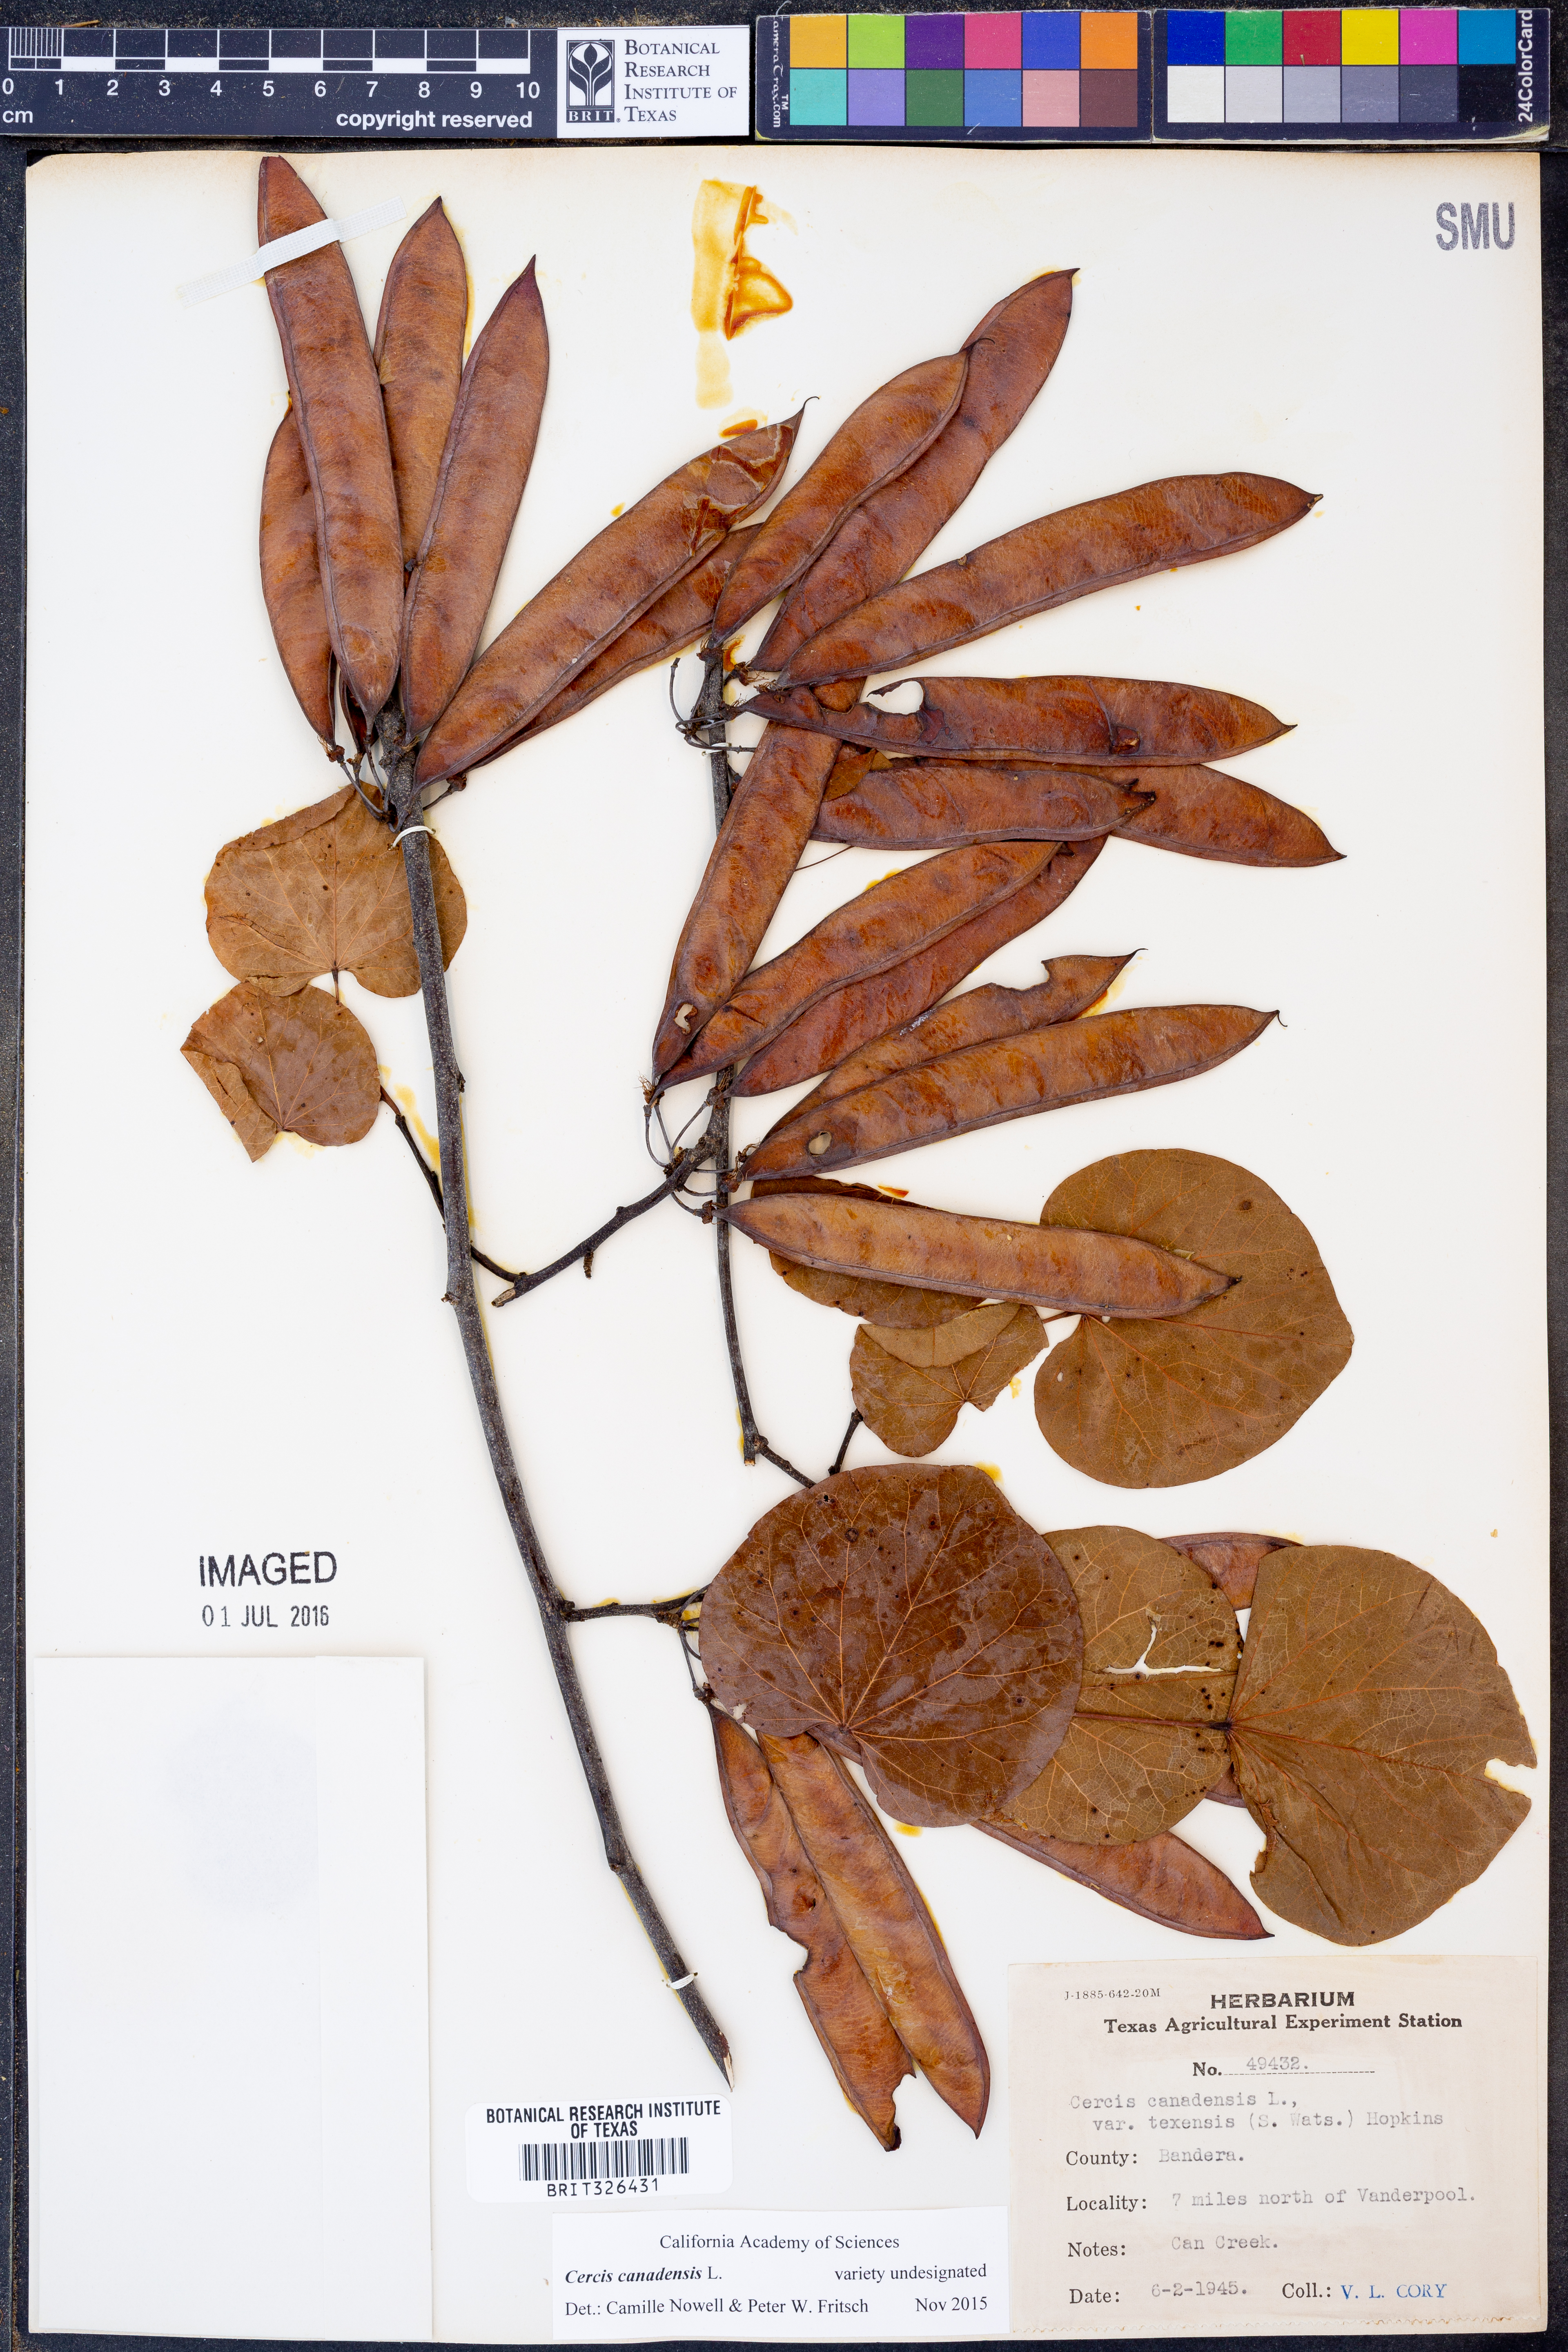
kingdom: Plantae
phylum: Tracheophyta
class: Magnoliopsida
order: Fabales
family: Fabaceae
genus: Cercis
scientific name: Cercis canadensis
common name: Eastern redbud
